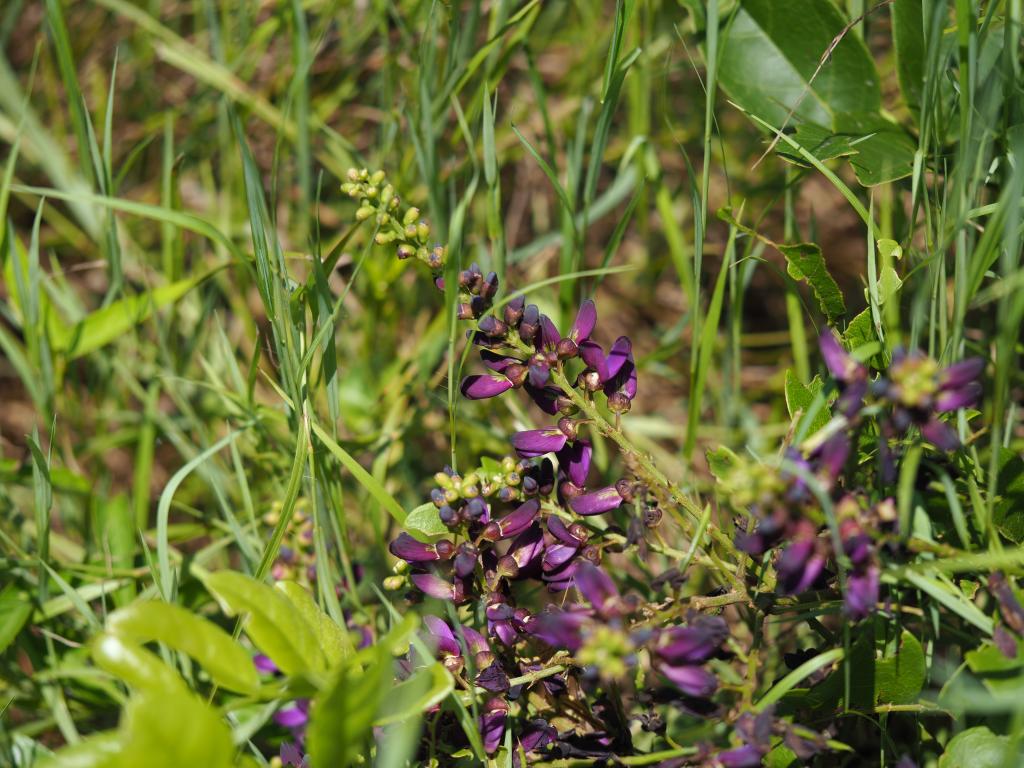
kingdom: Plantae
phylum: Tracheophyta
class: Magnoliopsida
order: Fabales
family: Fabaceae
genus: Wisteriopsis
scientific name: Wisteriopsis reticulata
